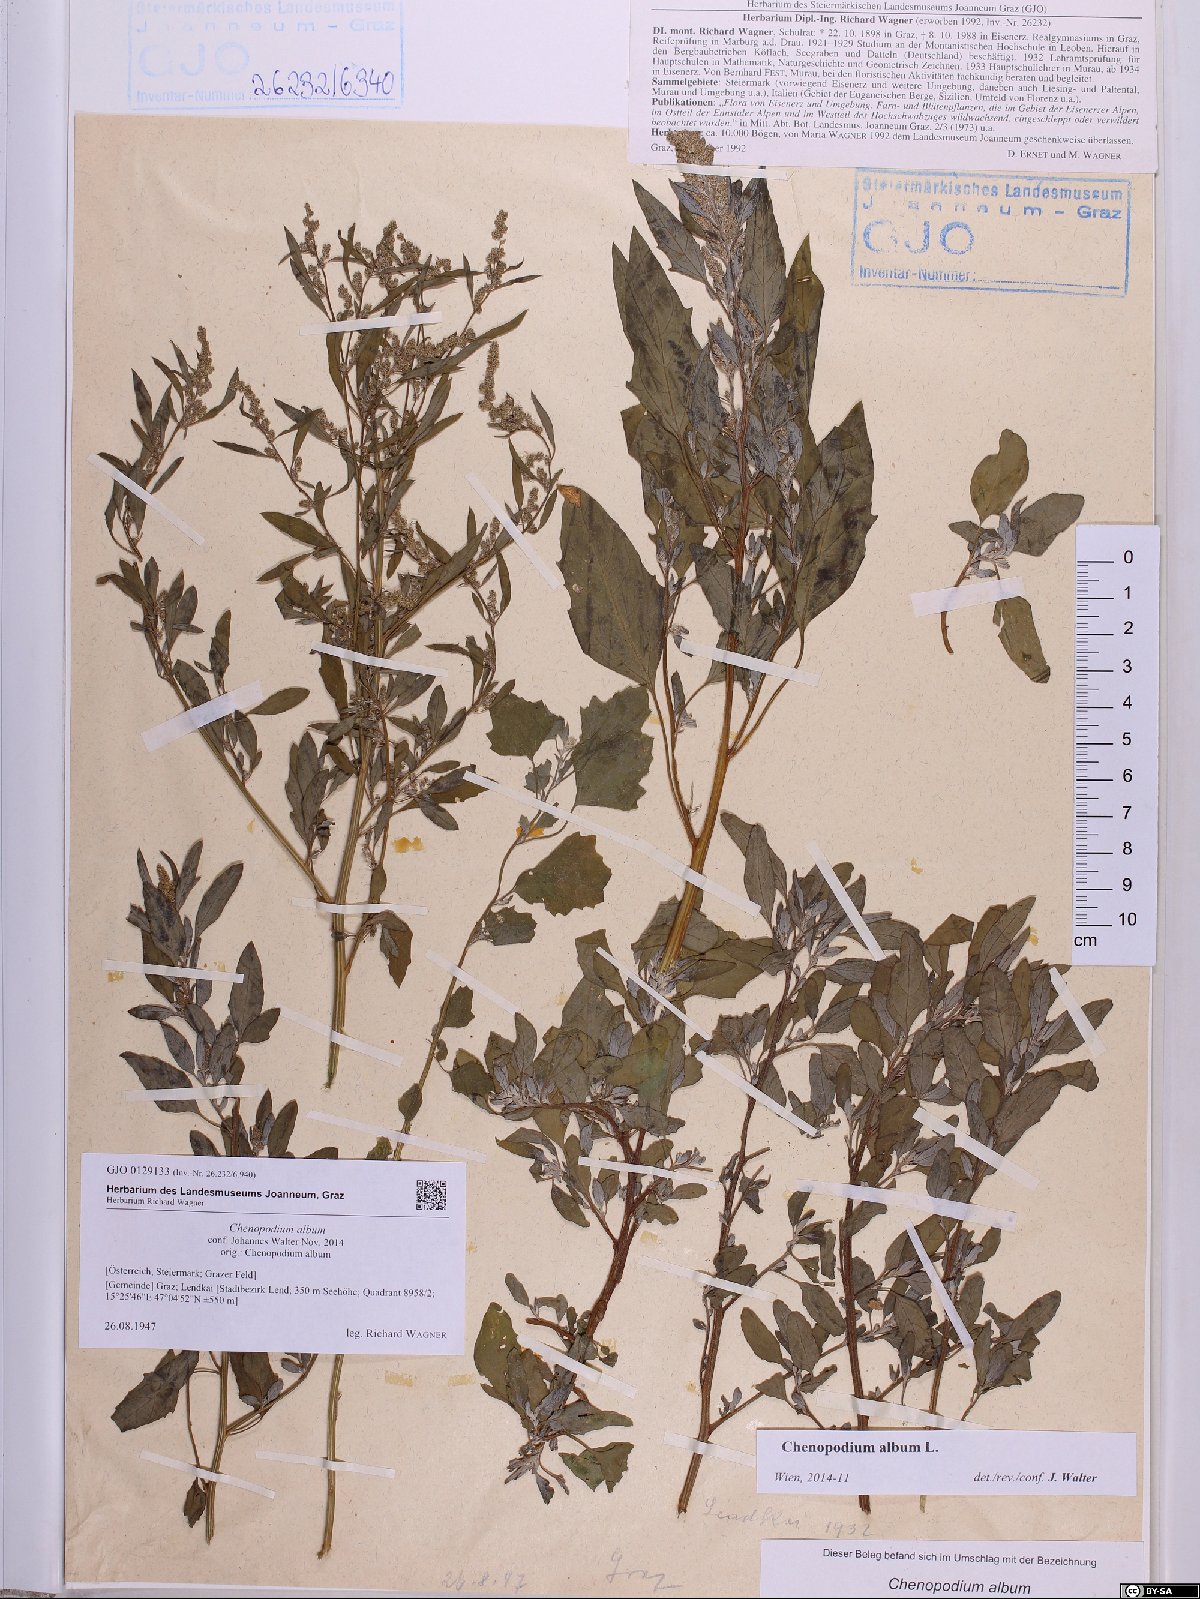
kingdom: Plantae
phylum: Tracheophyta
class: Magnoliopsida
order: Caryophyllales
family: Amaranthaceae
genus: Chenopodium
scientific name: Chenopodium album
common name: Fat-hen
